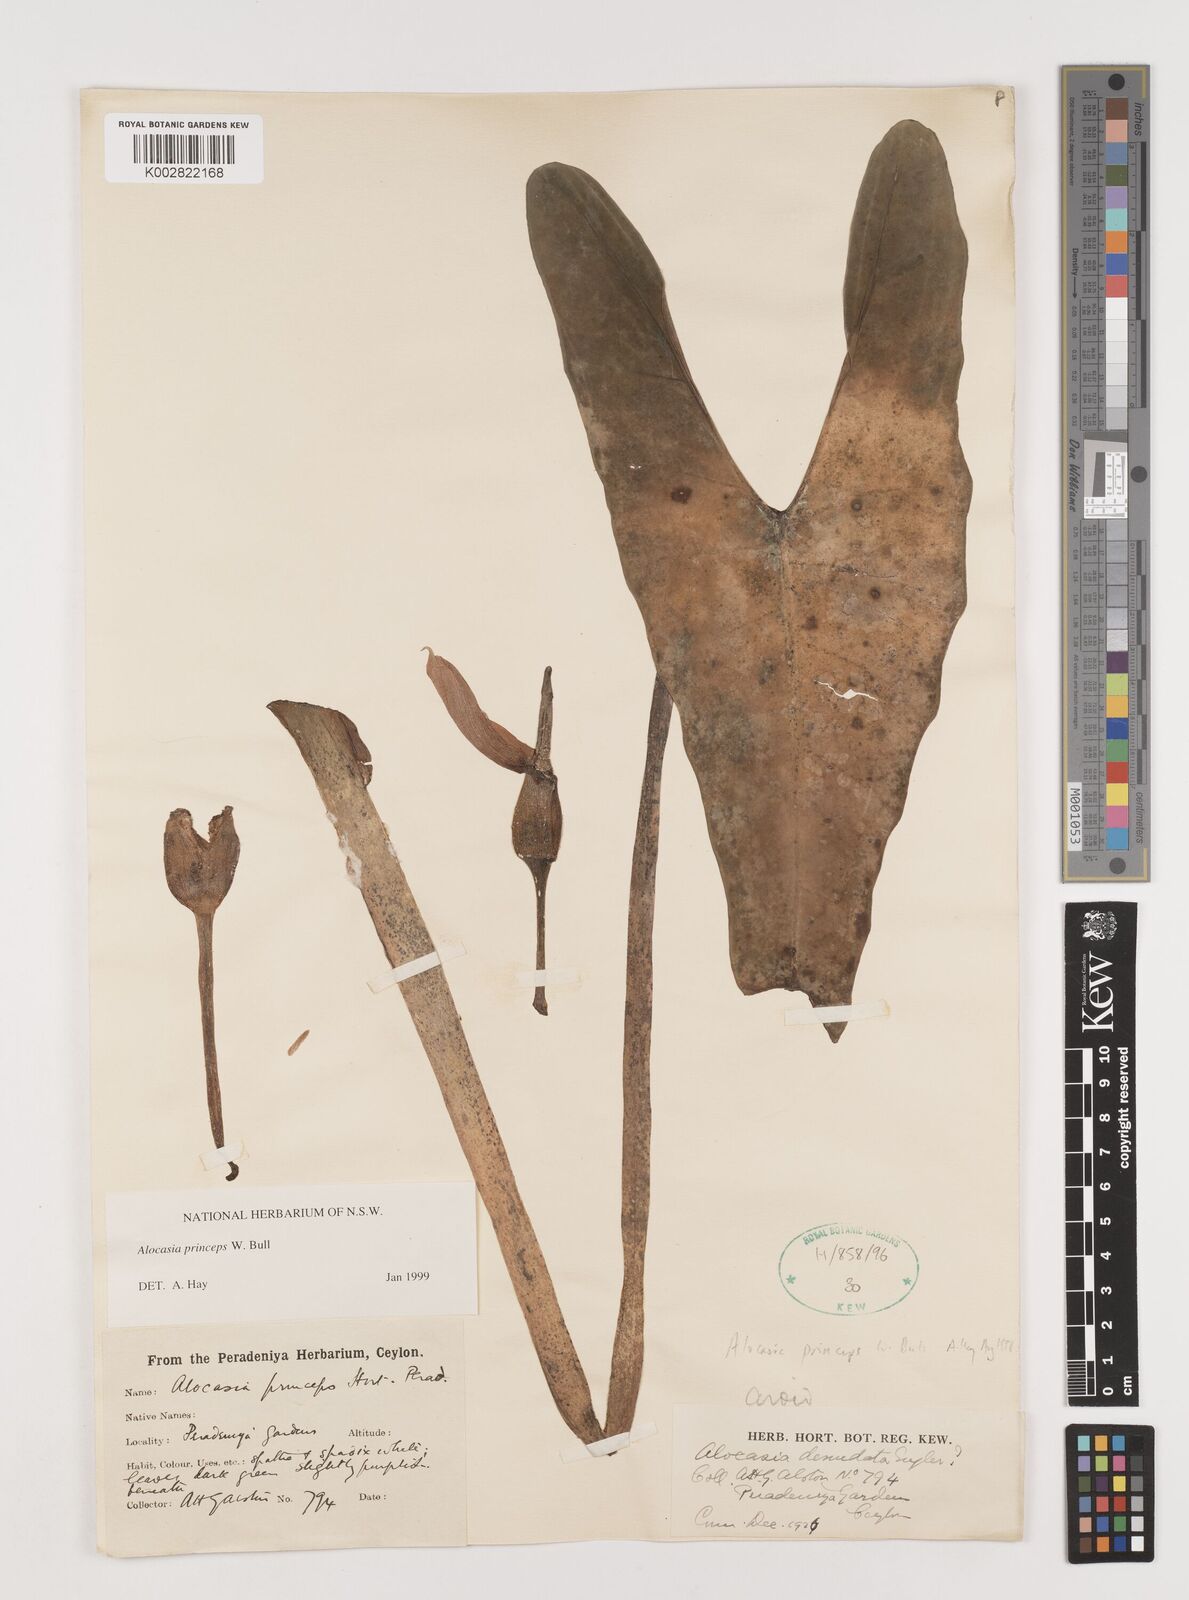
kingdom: Plantae
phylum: Tracheophyta
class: Liliopsida
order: Alismatales
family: Araceae
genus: Alocasia
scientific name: Alocasia princeps
